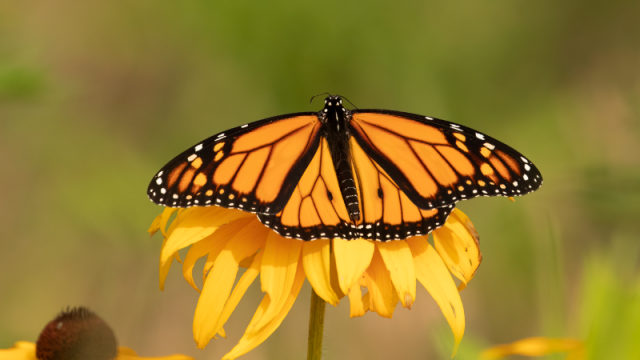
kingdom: Animalia
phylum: Arthropoda
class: Insecta
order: Lepidoptera
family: Nymphalidae
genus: Danaus
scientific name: Danaus plexippus
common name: Monarch
